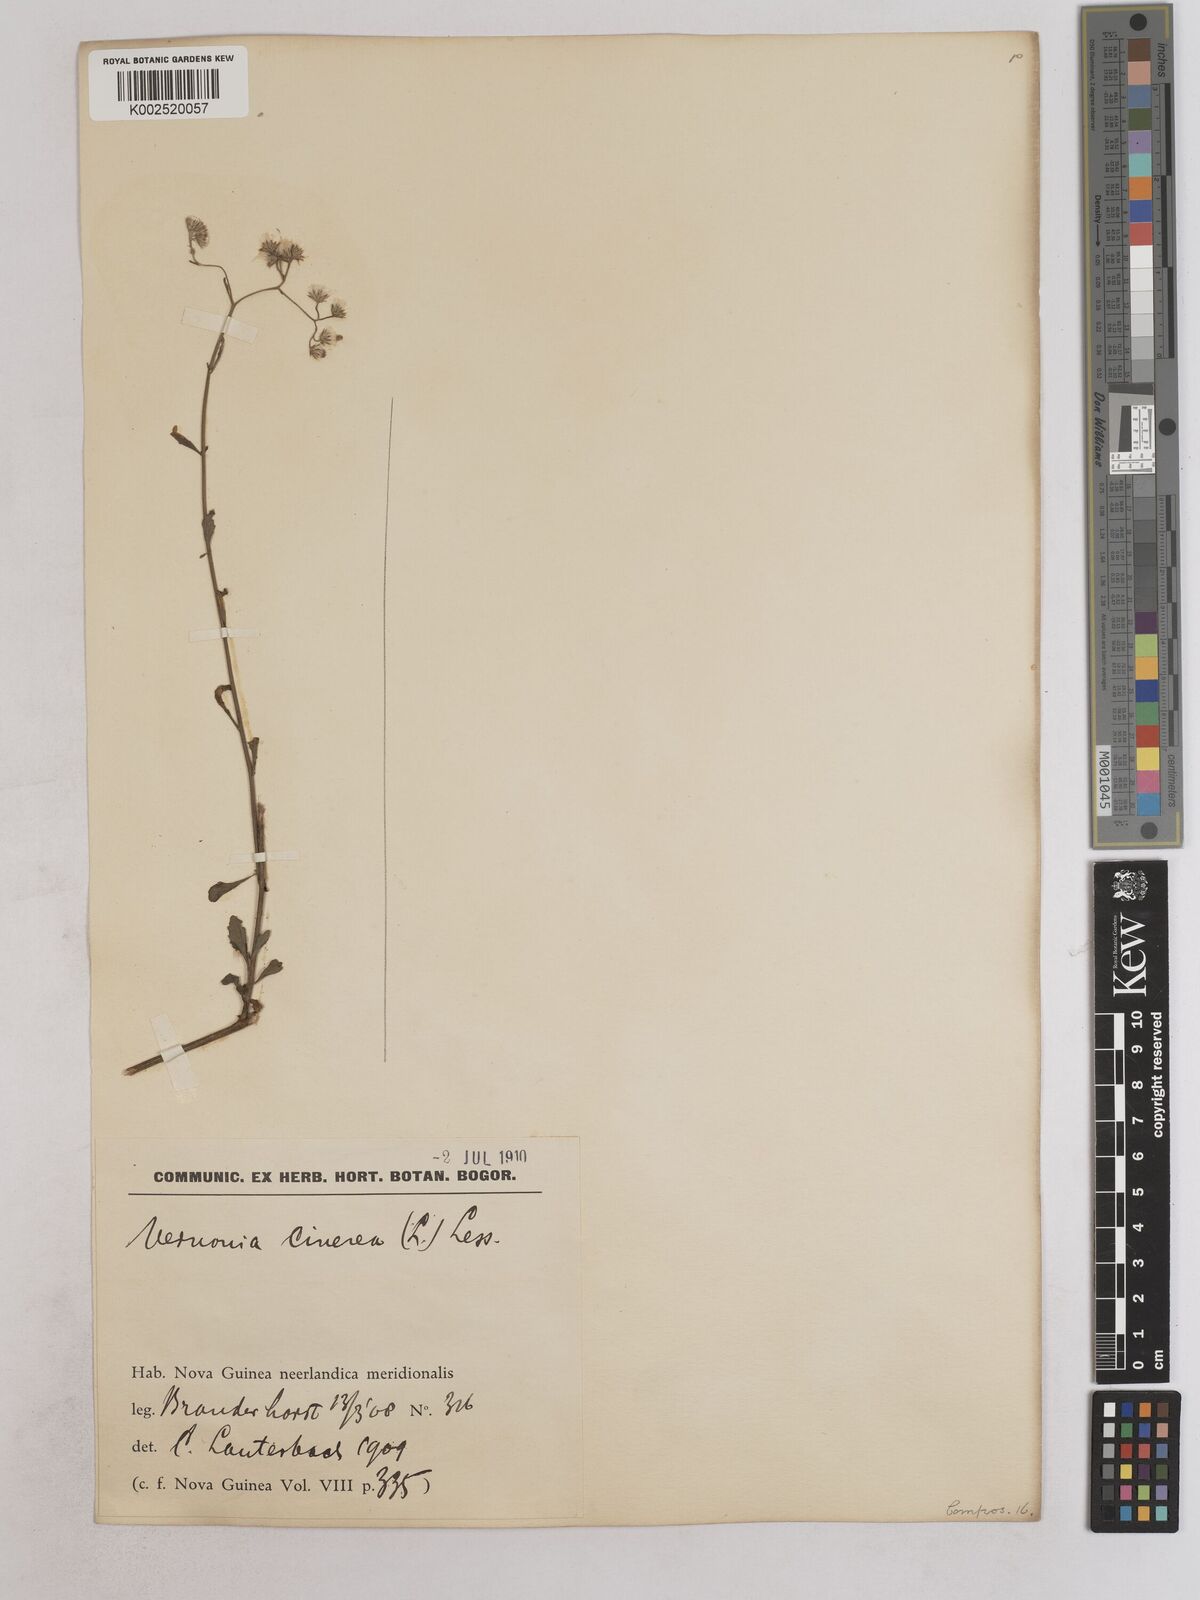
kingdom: Plantae
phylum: Tracheophyta
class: Magnoliopsida
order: Asterales
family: Asteraceae
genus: Cyanthillium
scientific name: Cyanthillium cinereum
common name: Little ironweed
